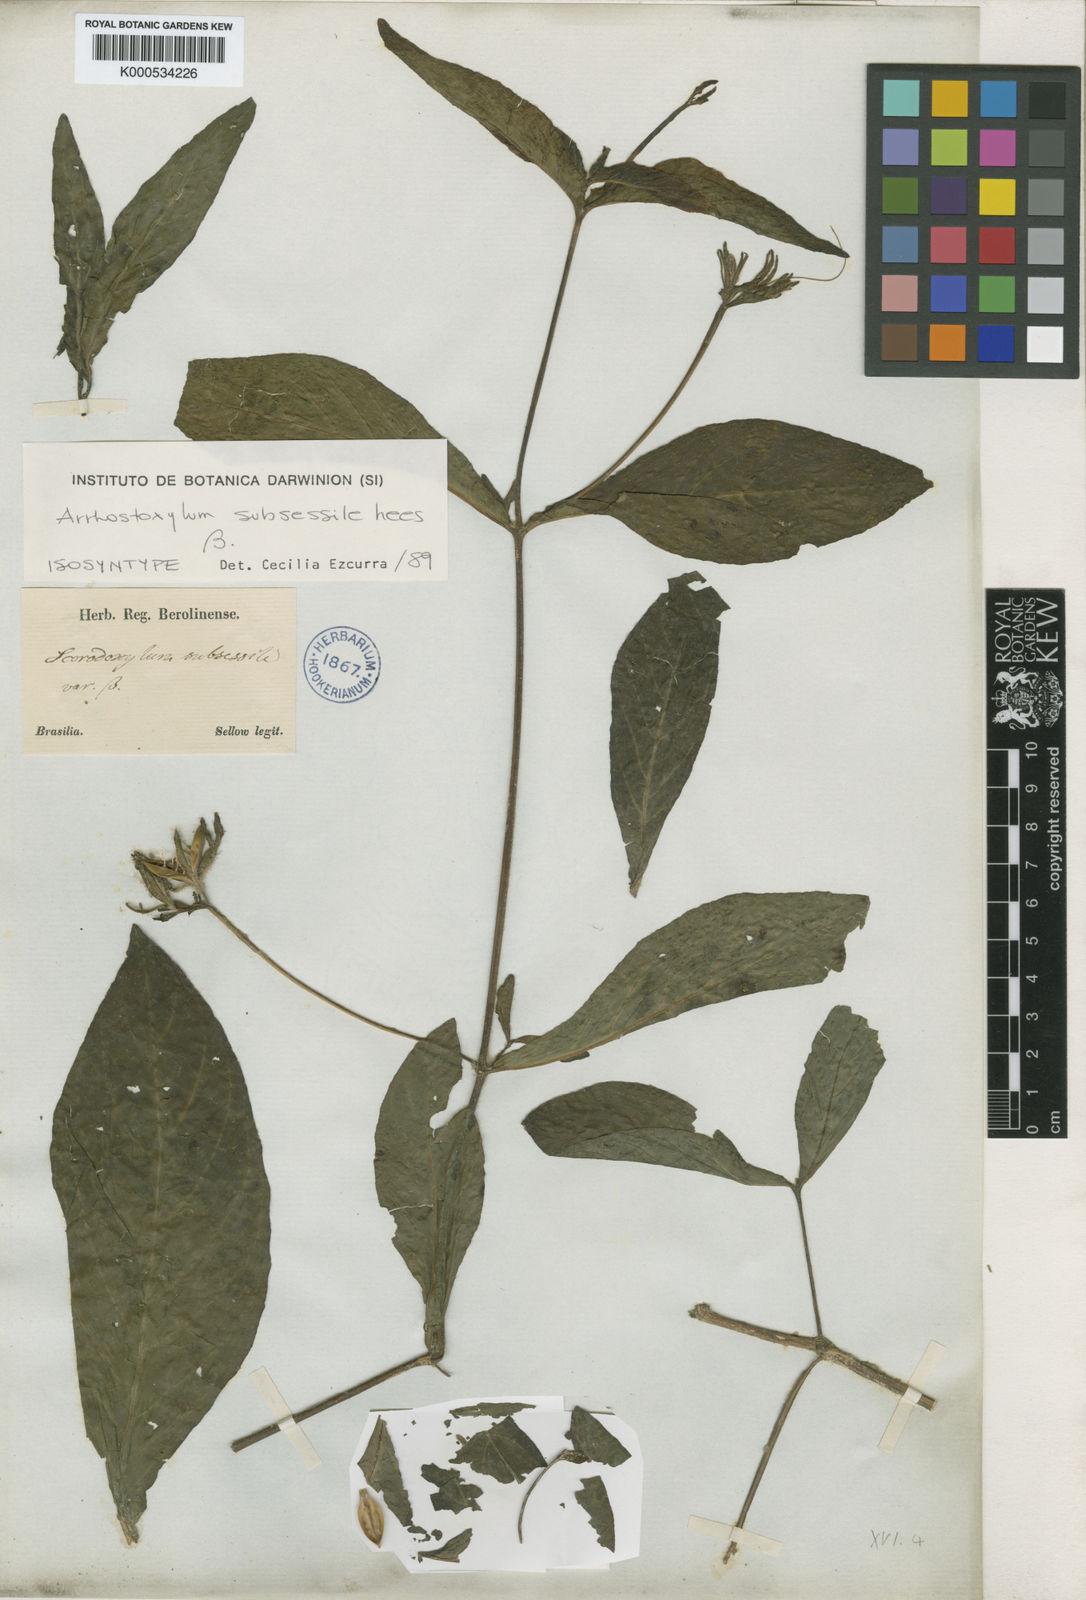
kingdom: Plantae
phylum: Tracheophyta
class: Magnoliopsida
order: Lamiales
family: Acanthaceae
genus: Ruellia
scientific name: Ruellia subsessilis
